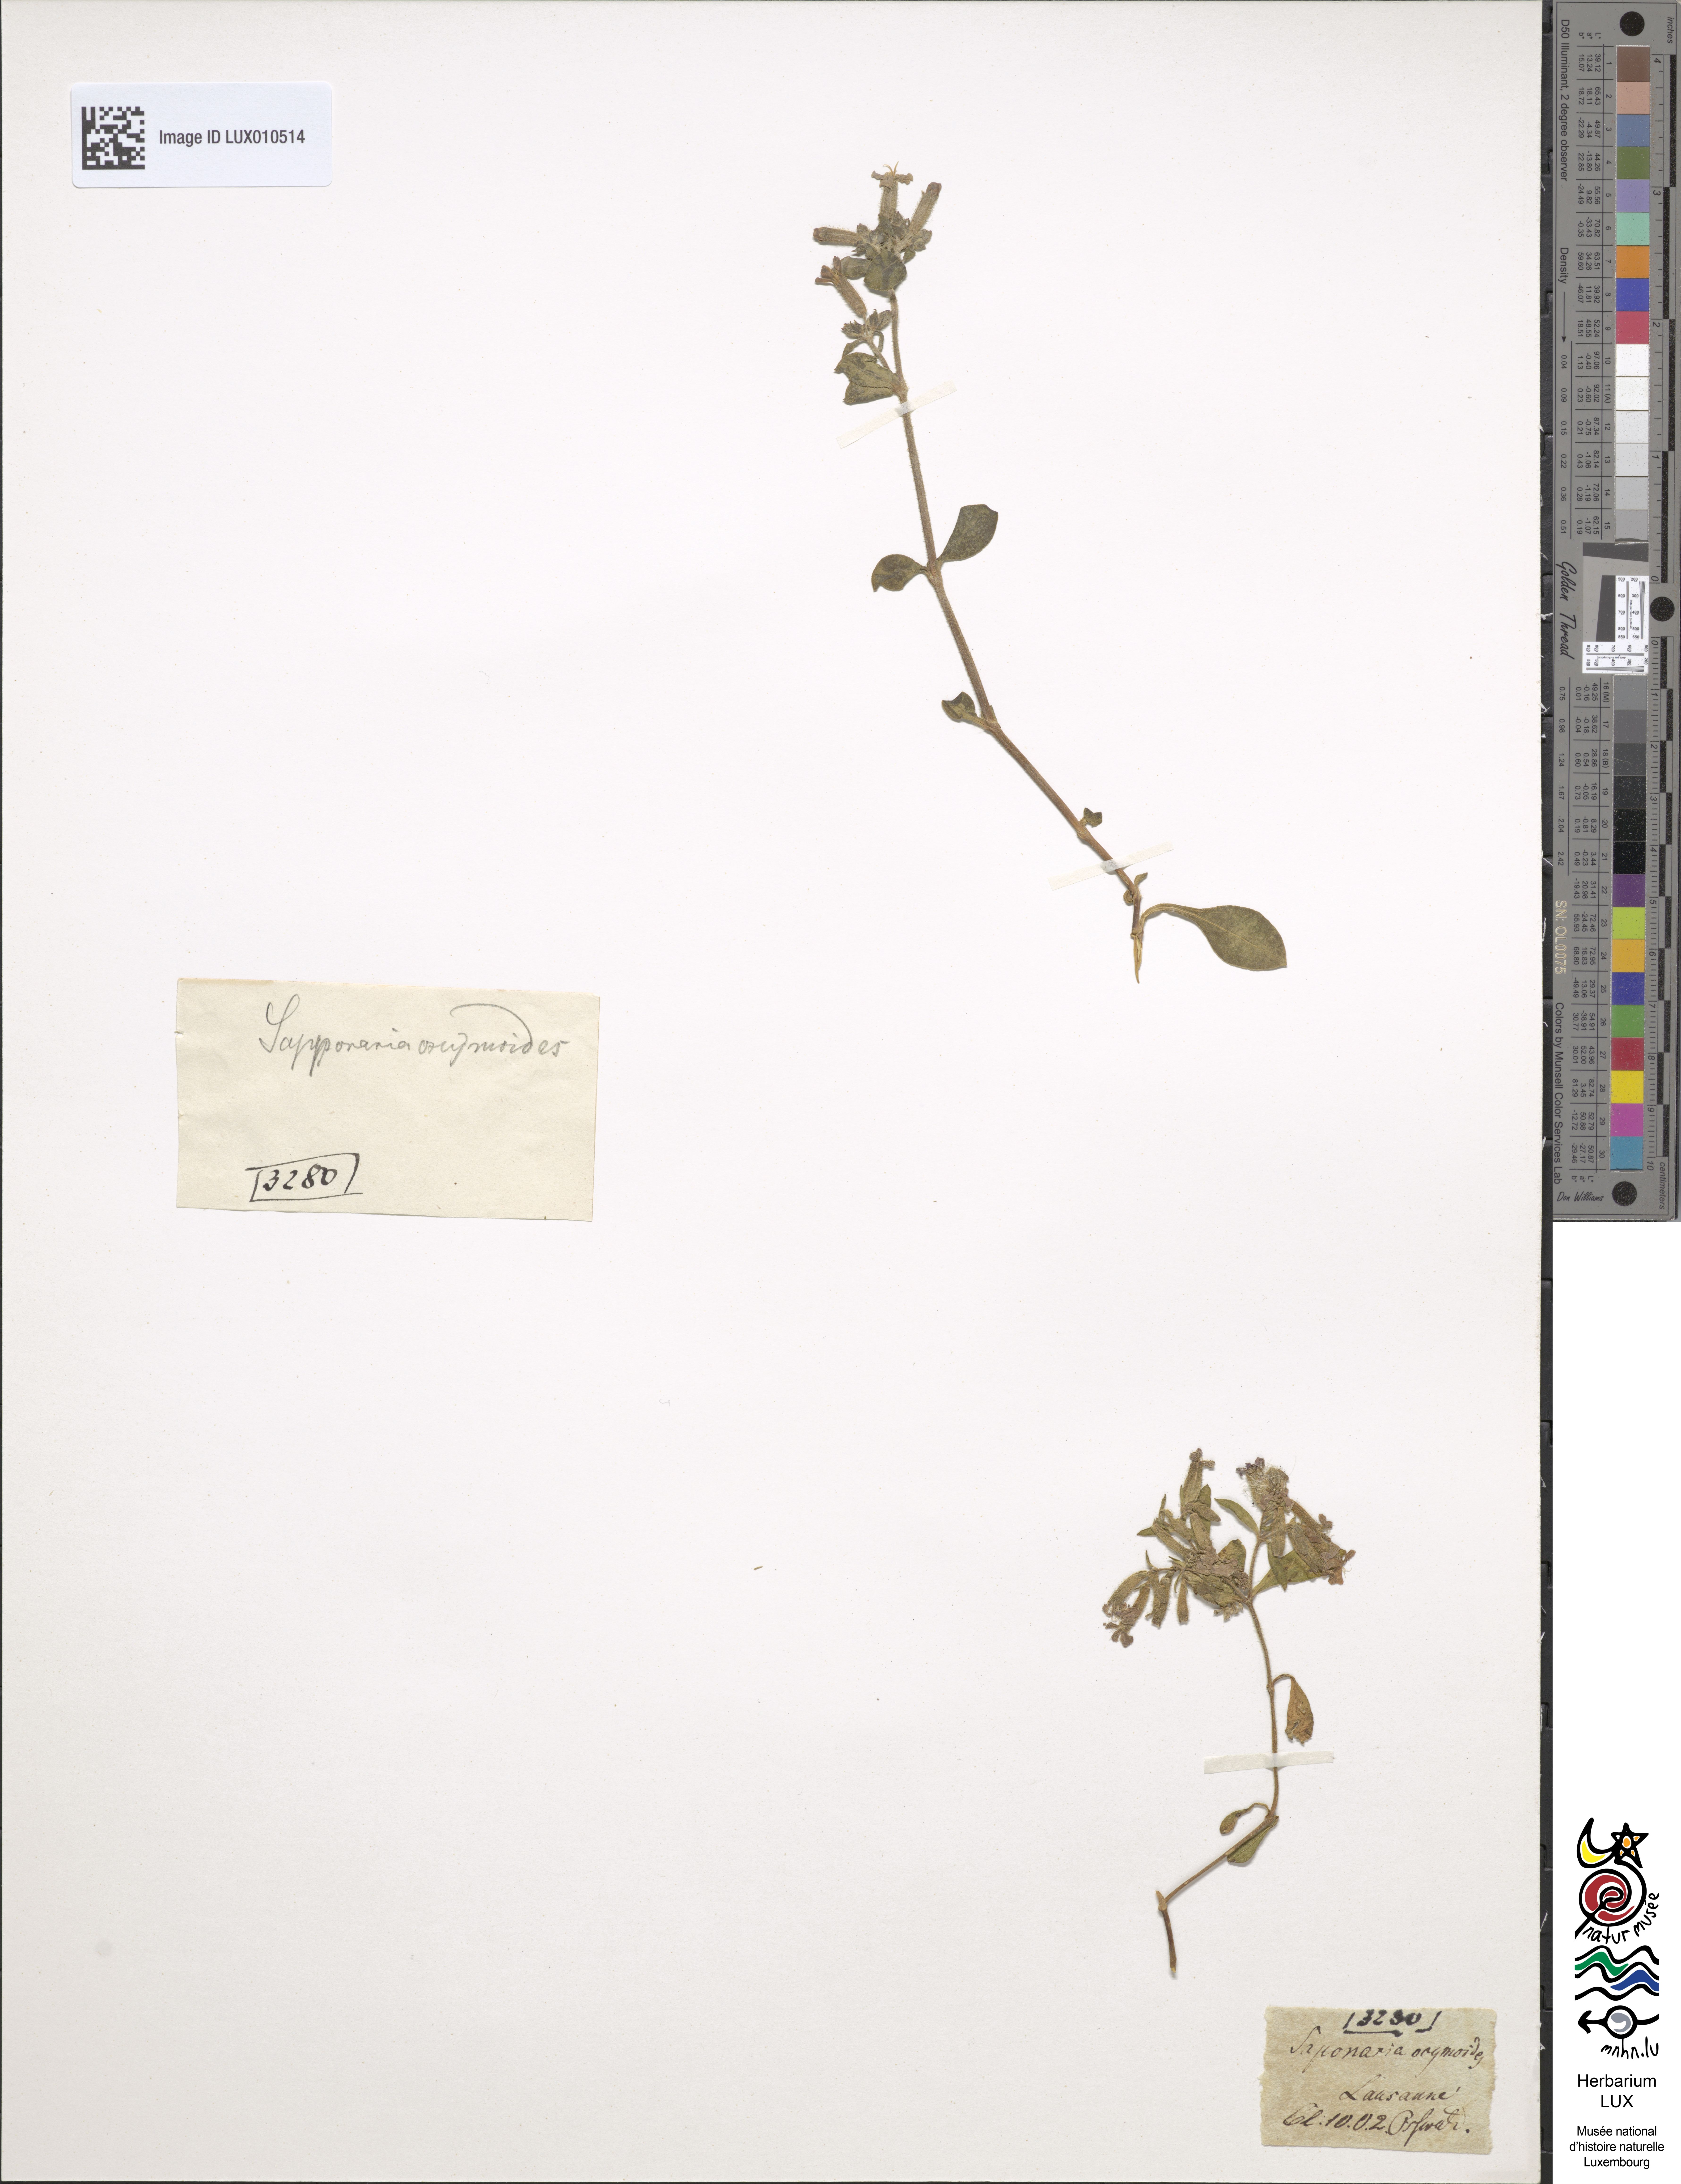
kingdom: Plantae
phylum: Tracheophyta
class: Magnoliopsida
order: Caryophyllales
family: Caryophyllaceae
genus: Saponaria
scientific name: Saponaria ocymoides
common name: Rock soapwort
